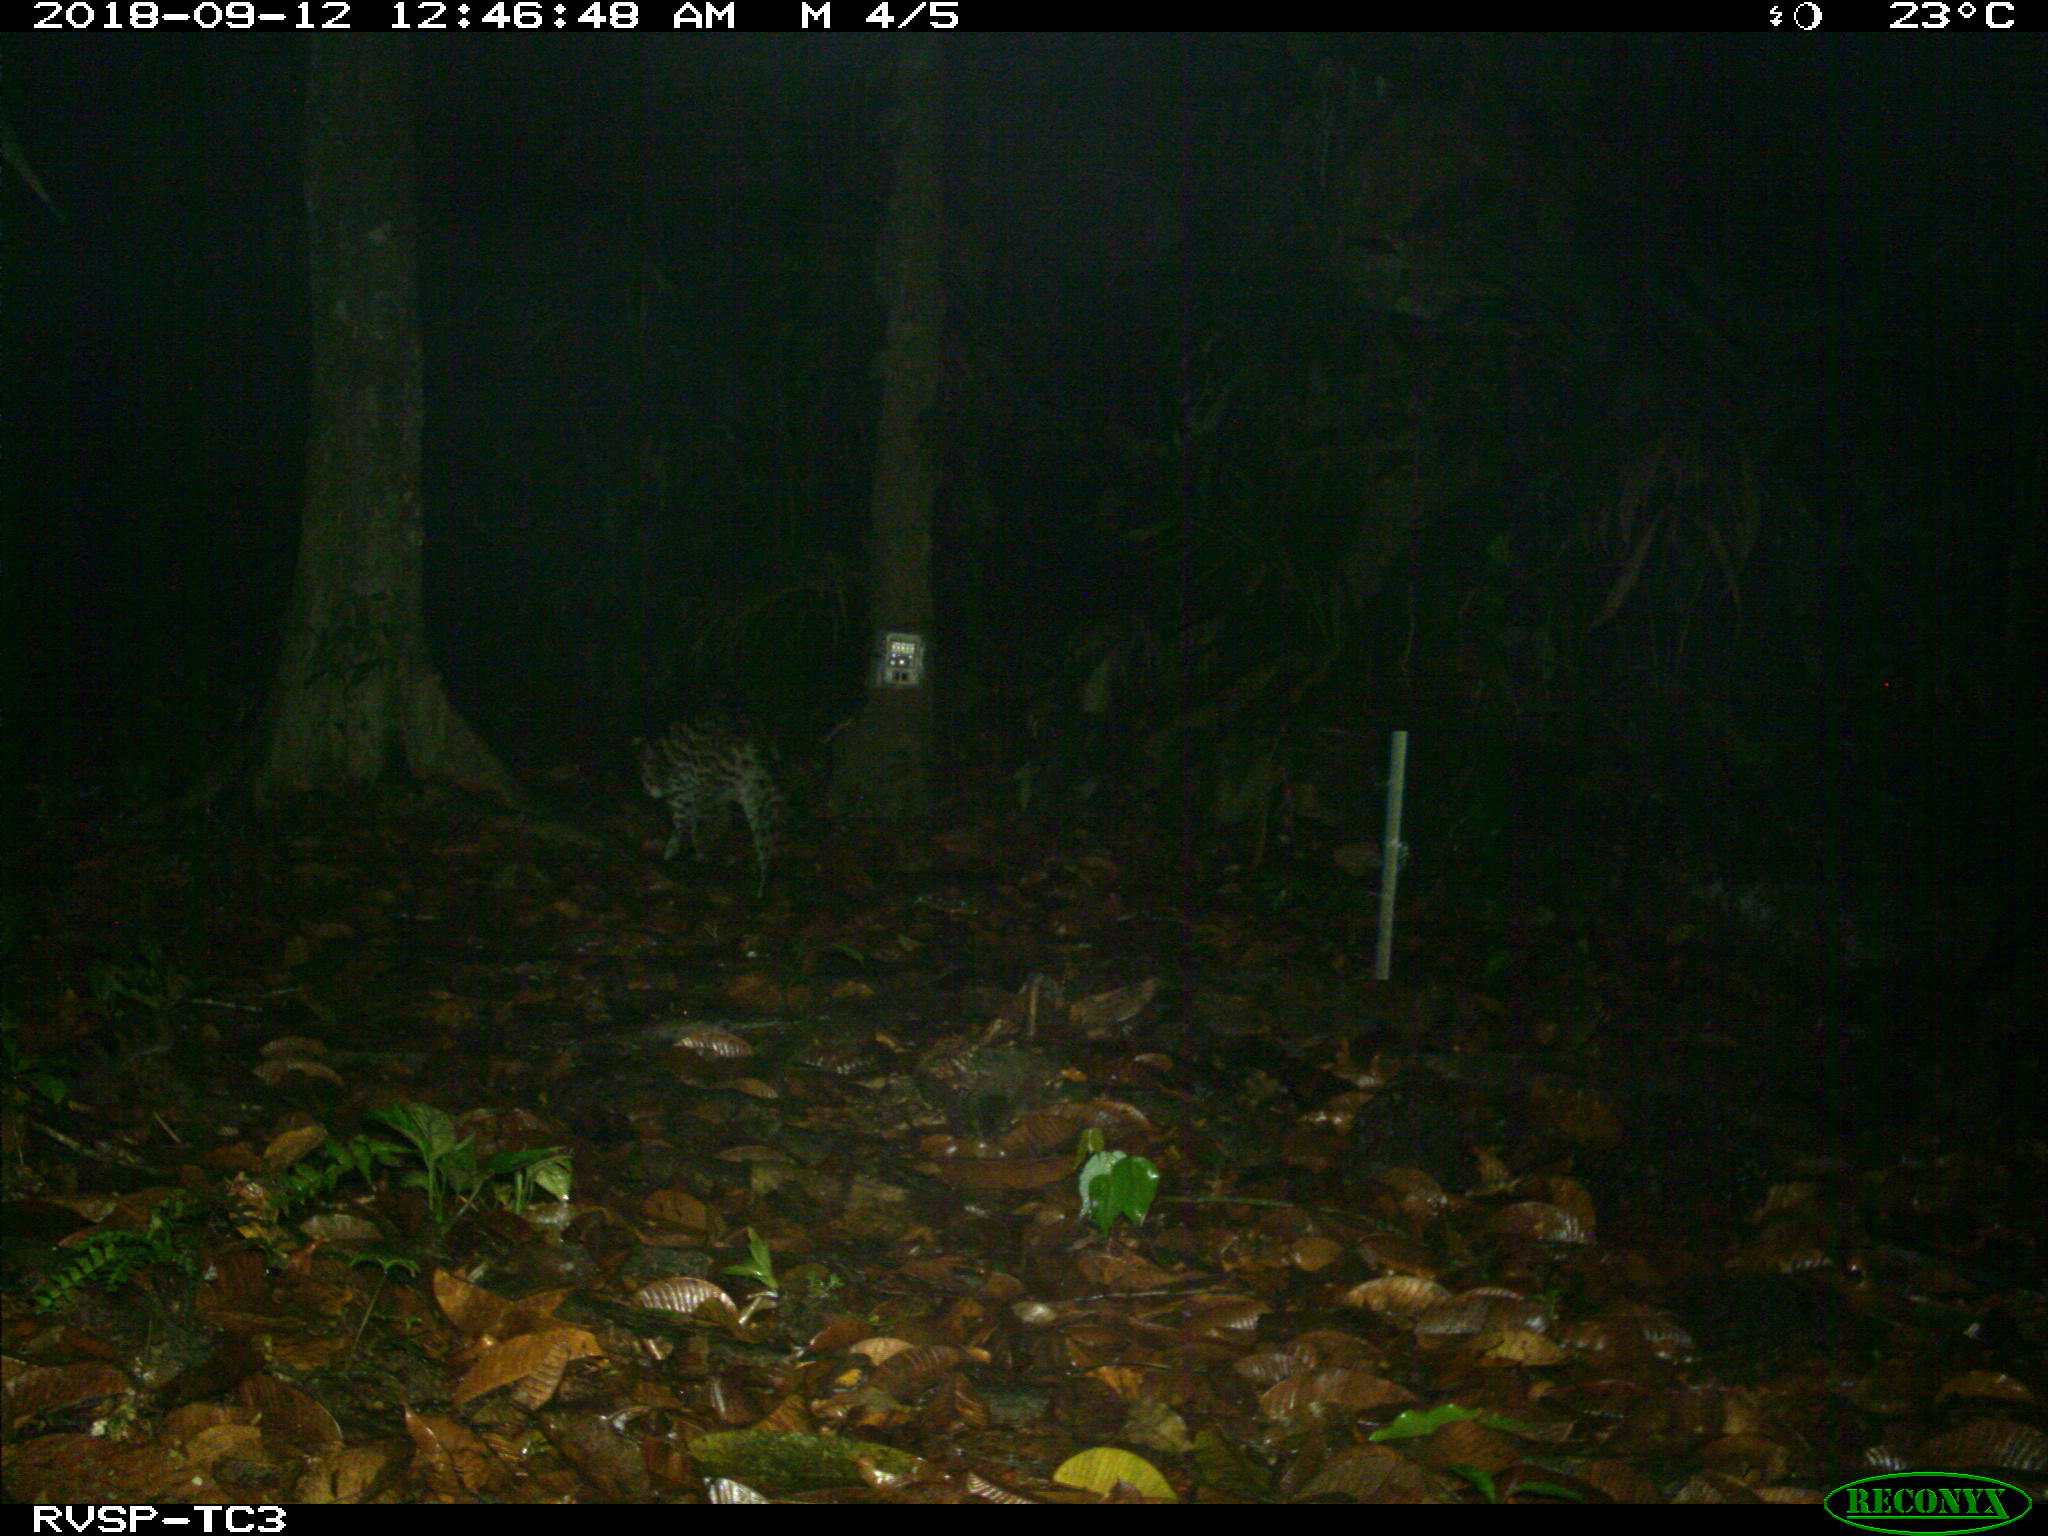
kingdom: Animalia
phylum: Chordata
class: Mammalia
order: Carnivora
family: Felidae
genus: Leopardus
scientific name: Leopardus pardalis
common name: Ocelot
